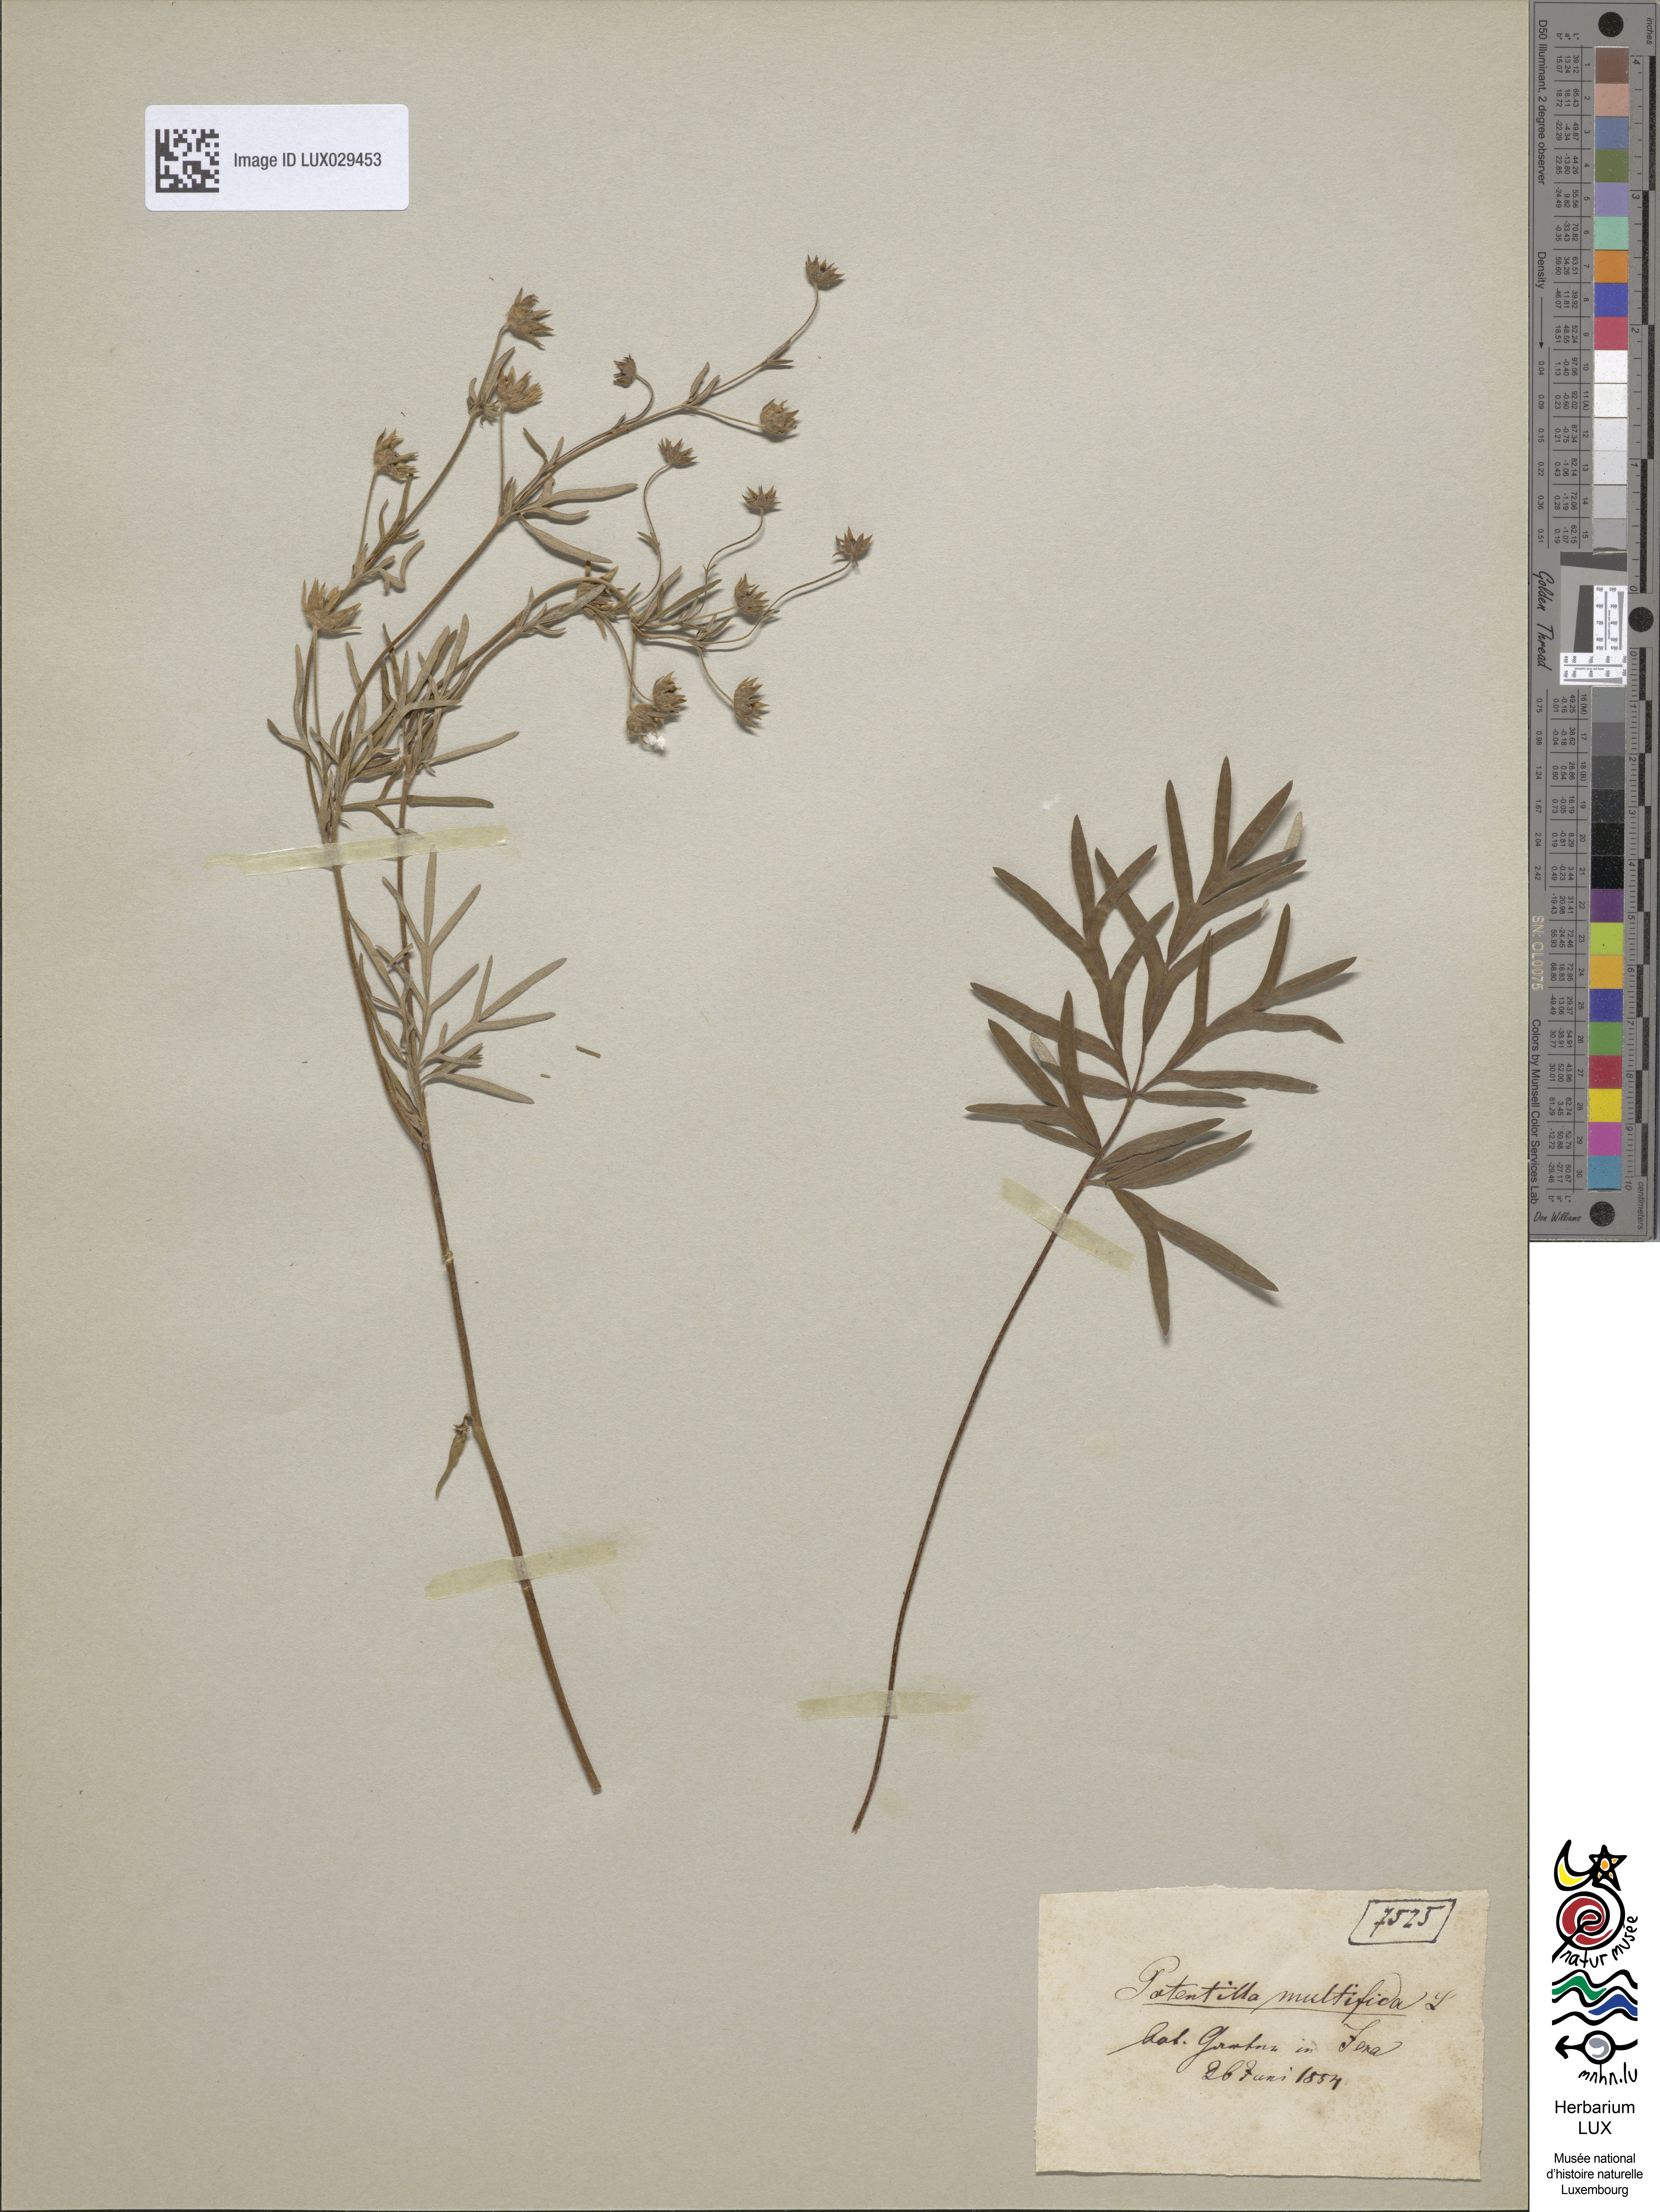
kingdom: Plantae
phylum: Tracheophyta
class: Magnoliopsida
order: Rosales
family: Rosaceae
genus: Potentilla
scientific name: Potentilla multifida
